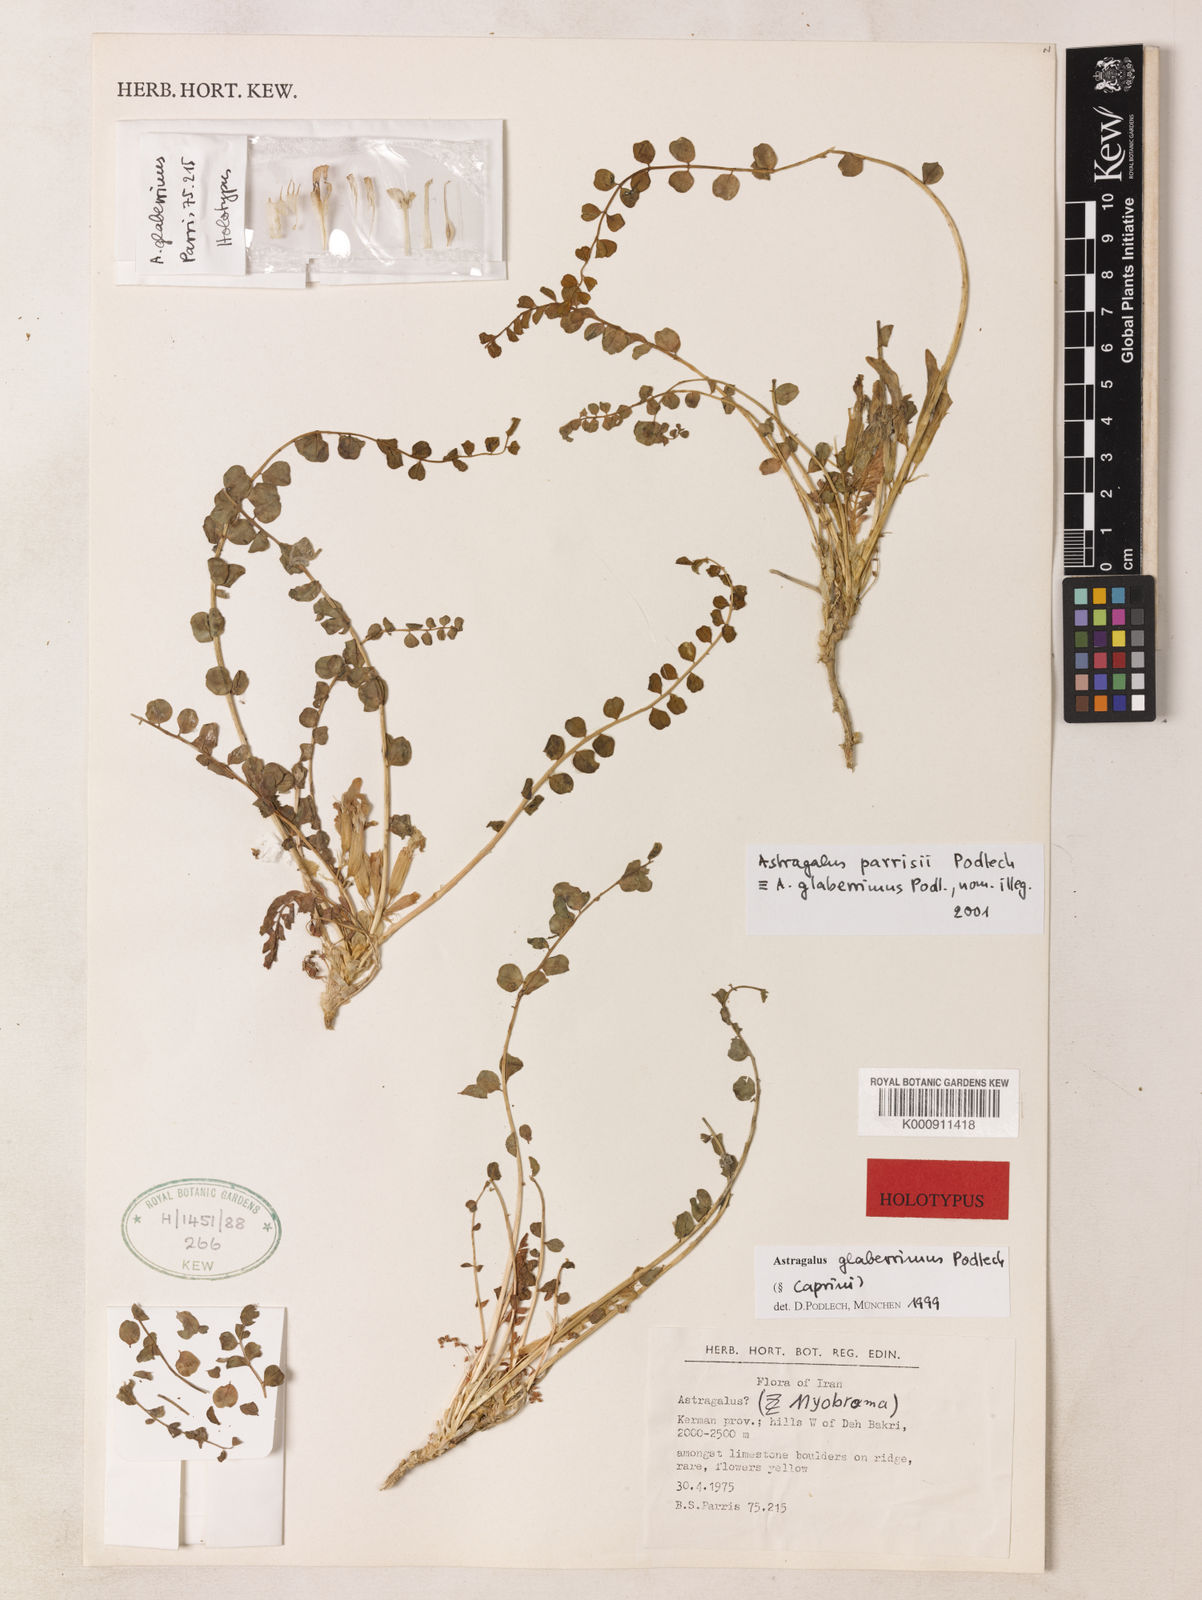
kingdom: Plantae
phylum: Tracheophyta
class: Magnoliopsida
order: Fabales
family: Fabaceae
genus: Astragalus
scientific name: Astragalus sojakii
